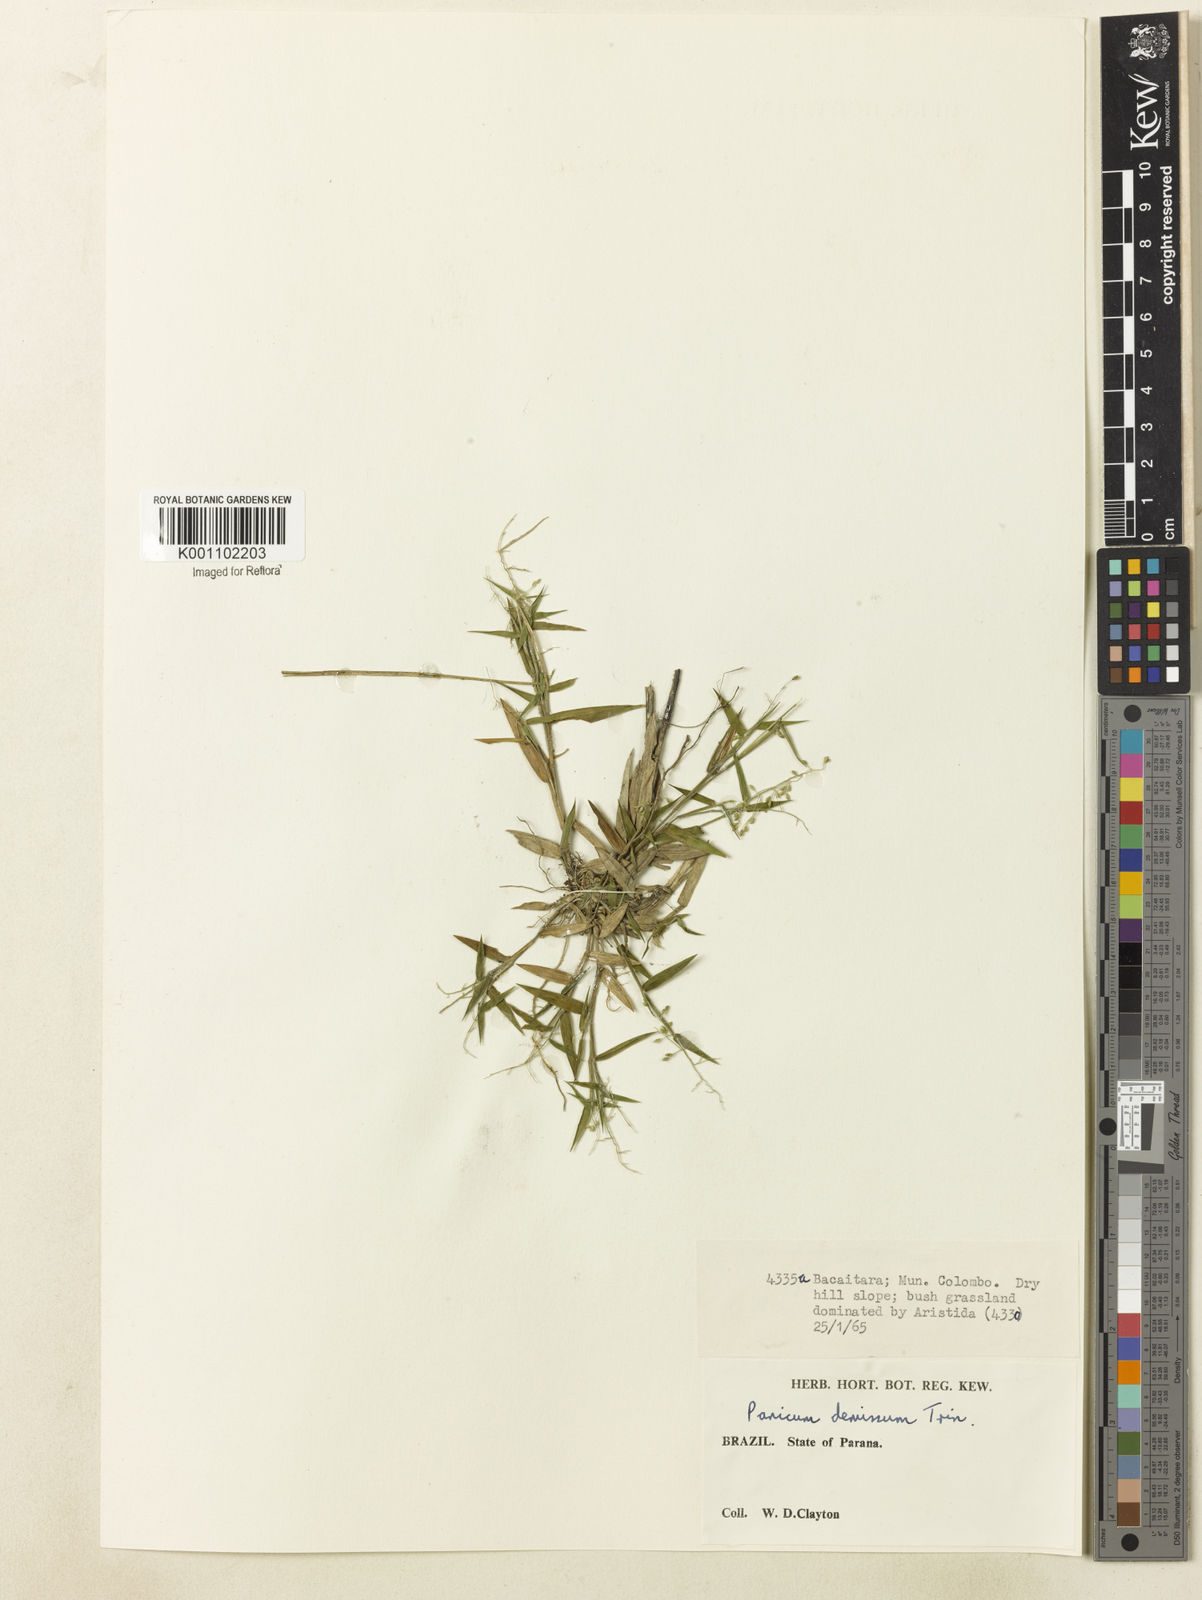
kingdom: Plantae
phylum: Tracheophyta
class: Liliopsida
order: Poales
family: Poaceae
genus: Dichanthelium
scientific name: Dichanthelium sabulorum
